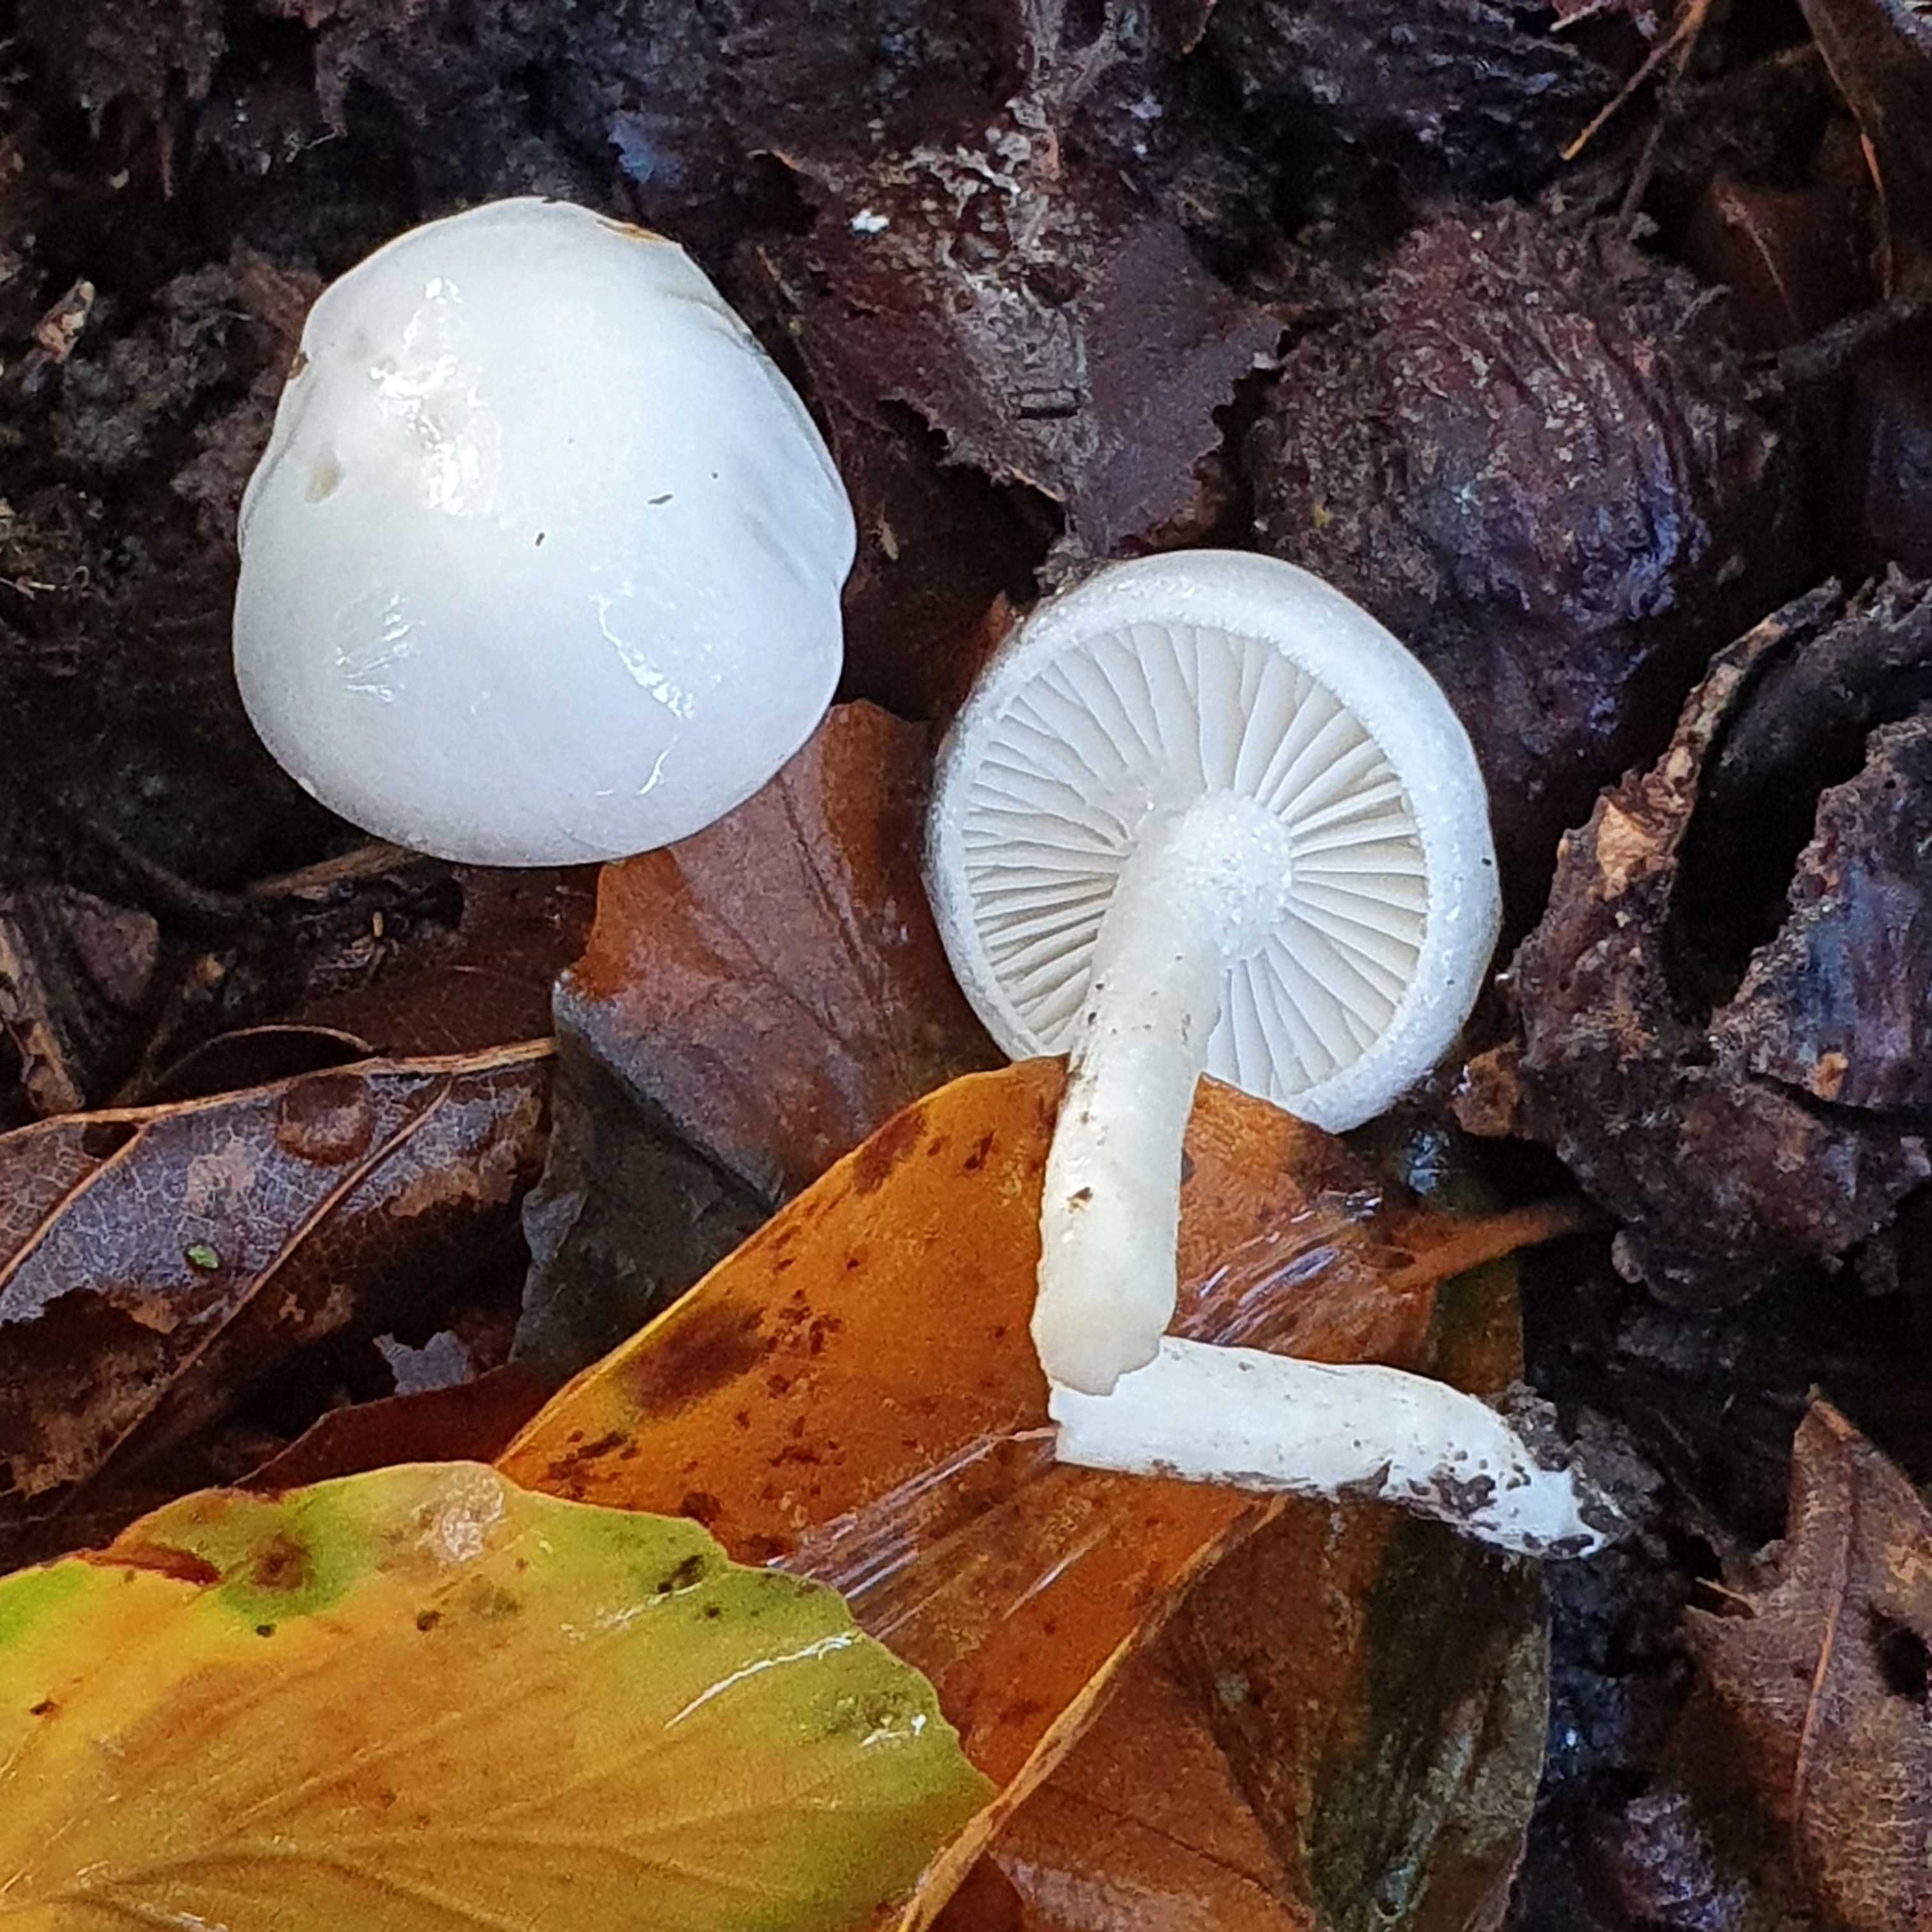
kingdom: Fungi
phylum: Basidiomycota
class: Agaricomycetes
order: Agaricales
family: Hygrophoraceae
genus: Hygrophorus
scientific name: Hygrophorus eburneus
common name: elfenbens-sneglehat
